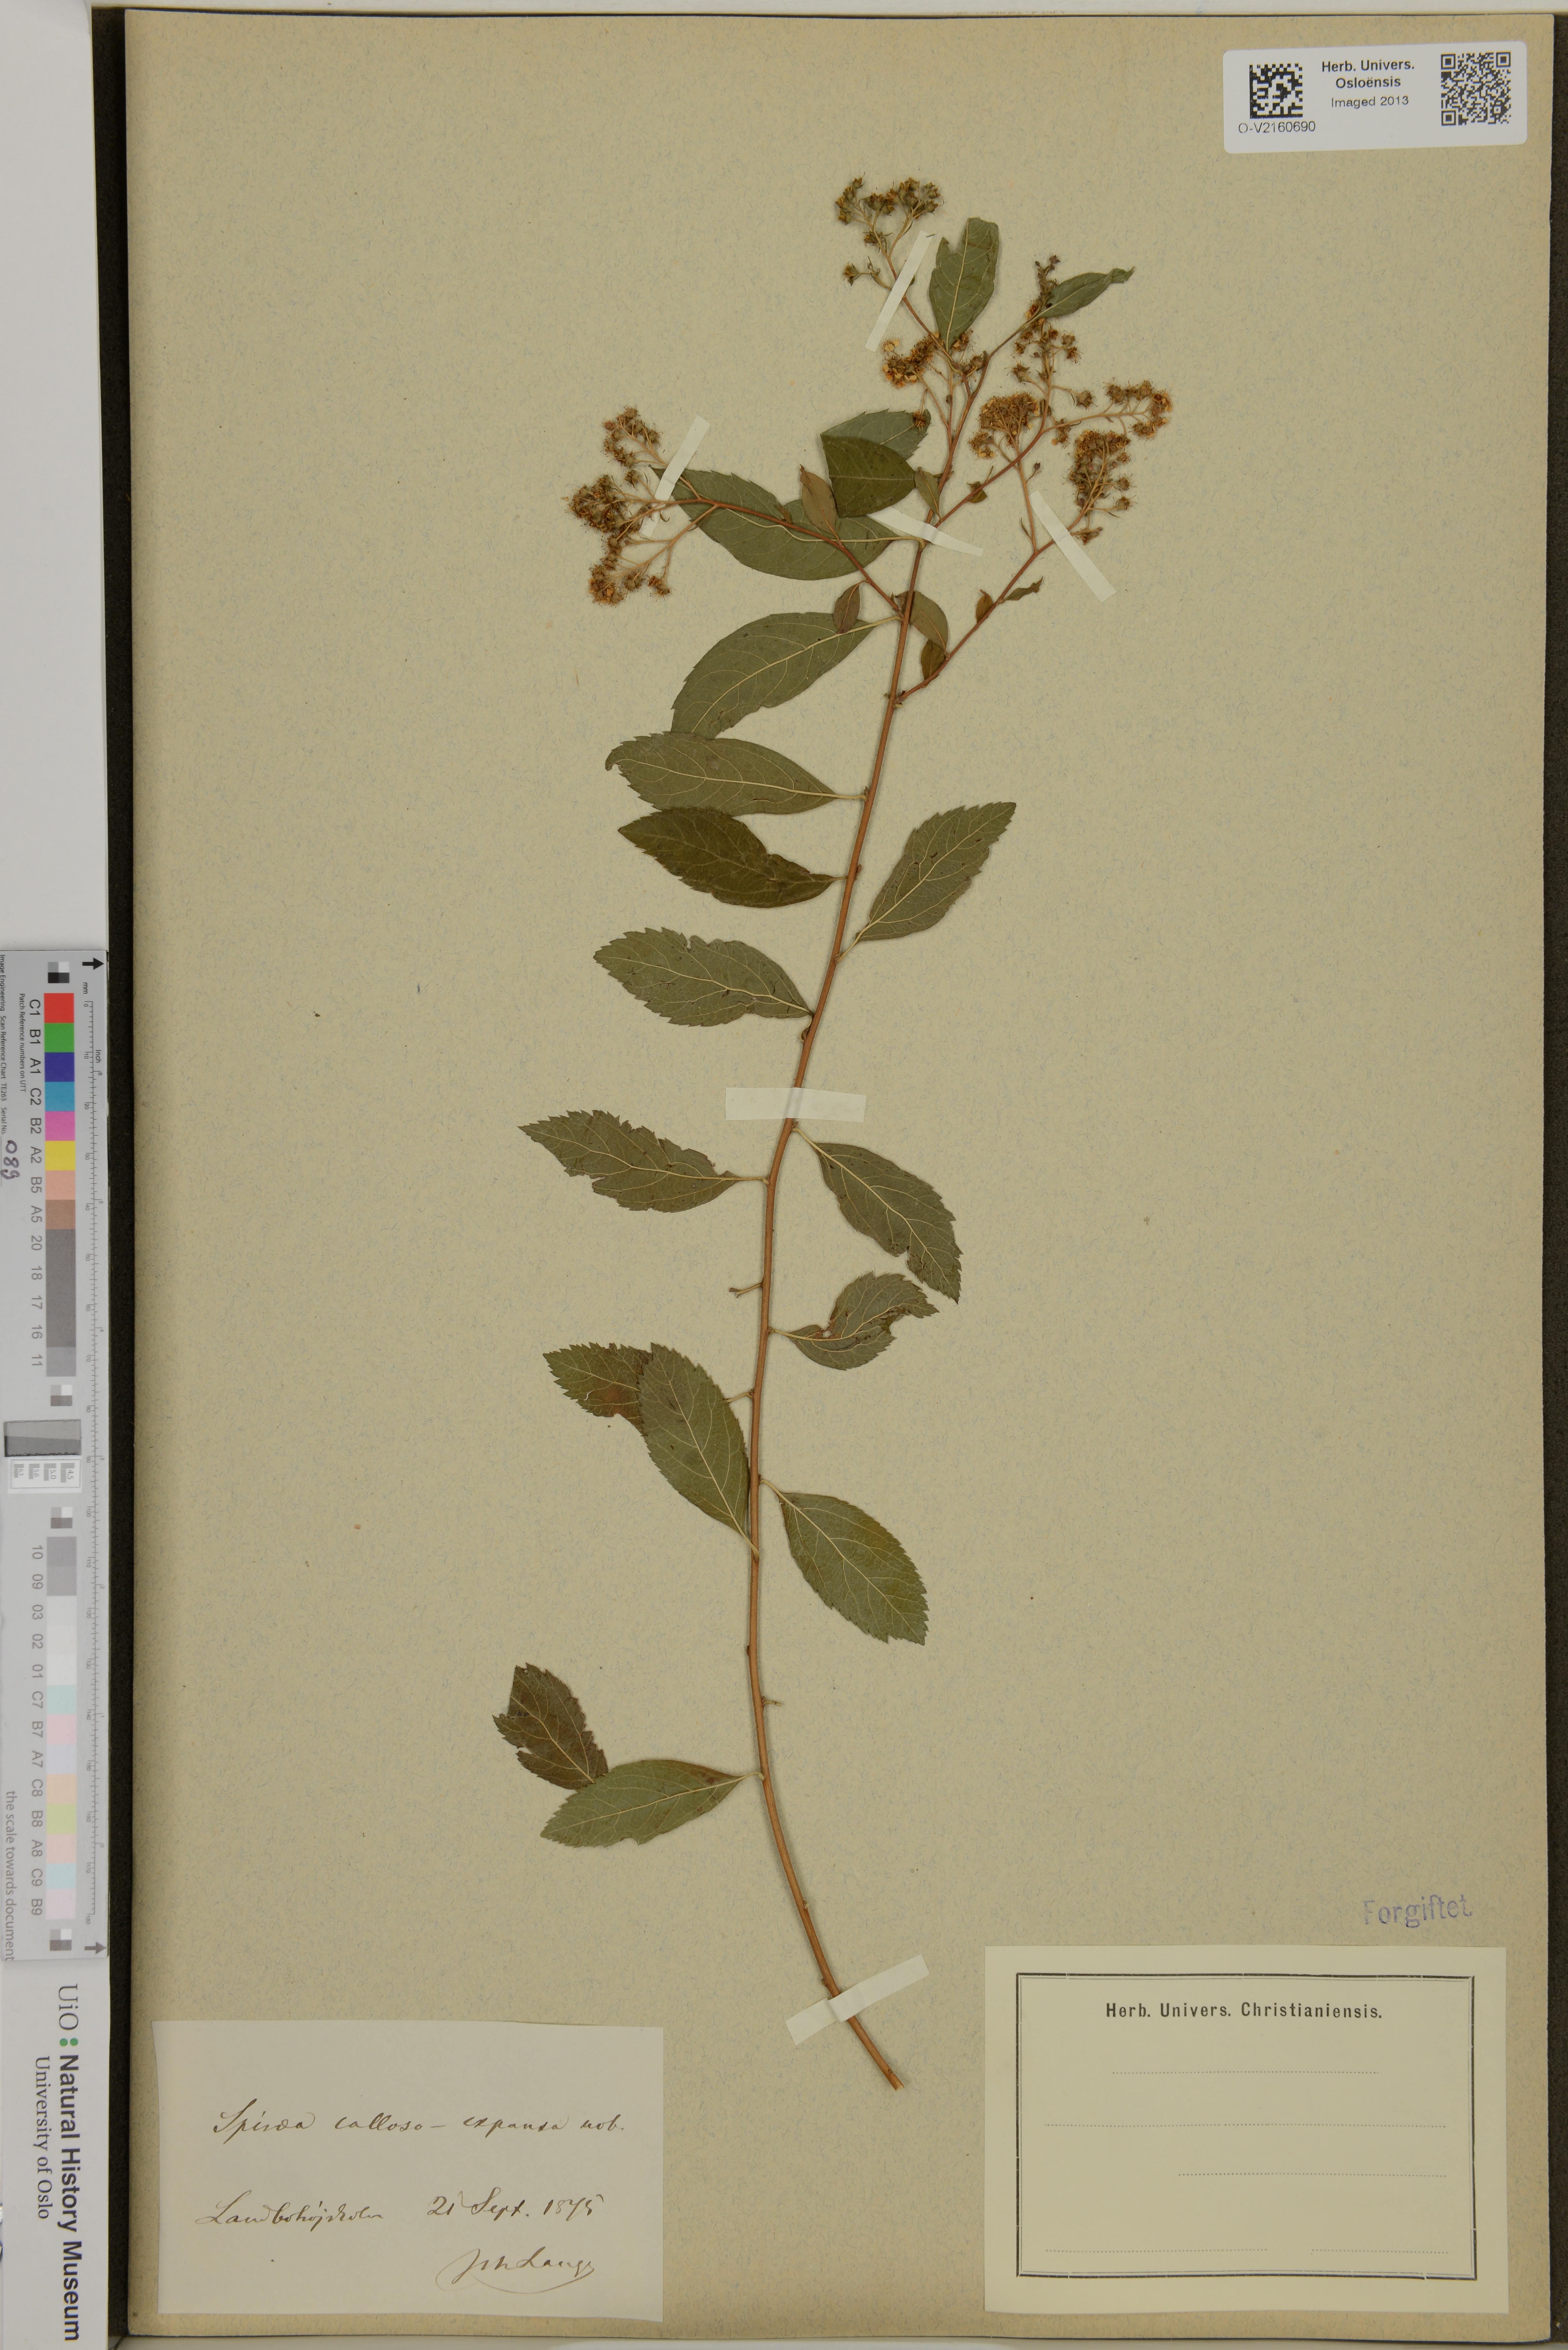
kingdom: Plantae
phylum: Tracheophyta
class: Magnoliopsida
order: Rosales
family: Rosaceae
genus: Spiraea
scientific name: Spiraea
